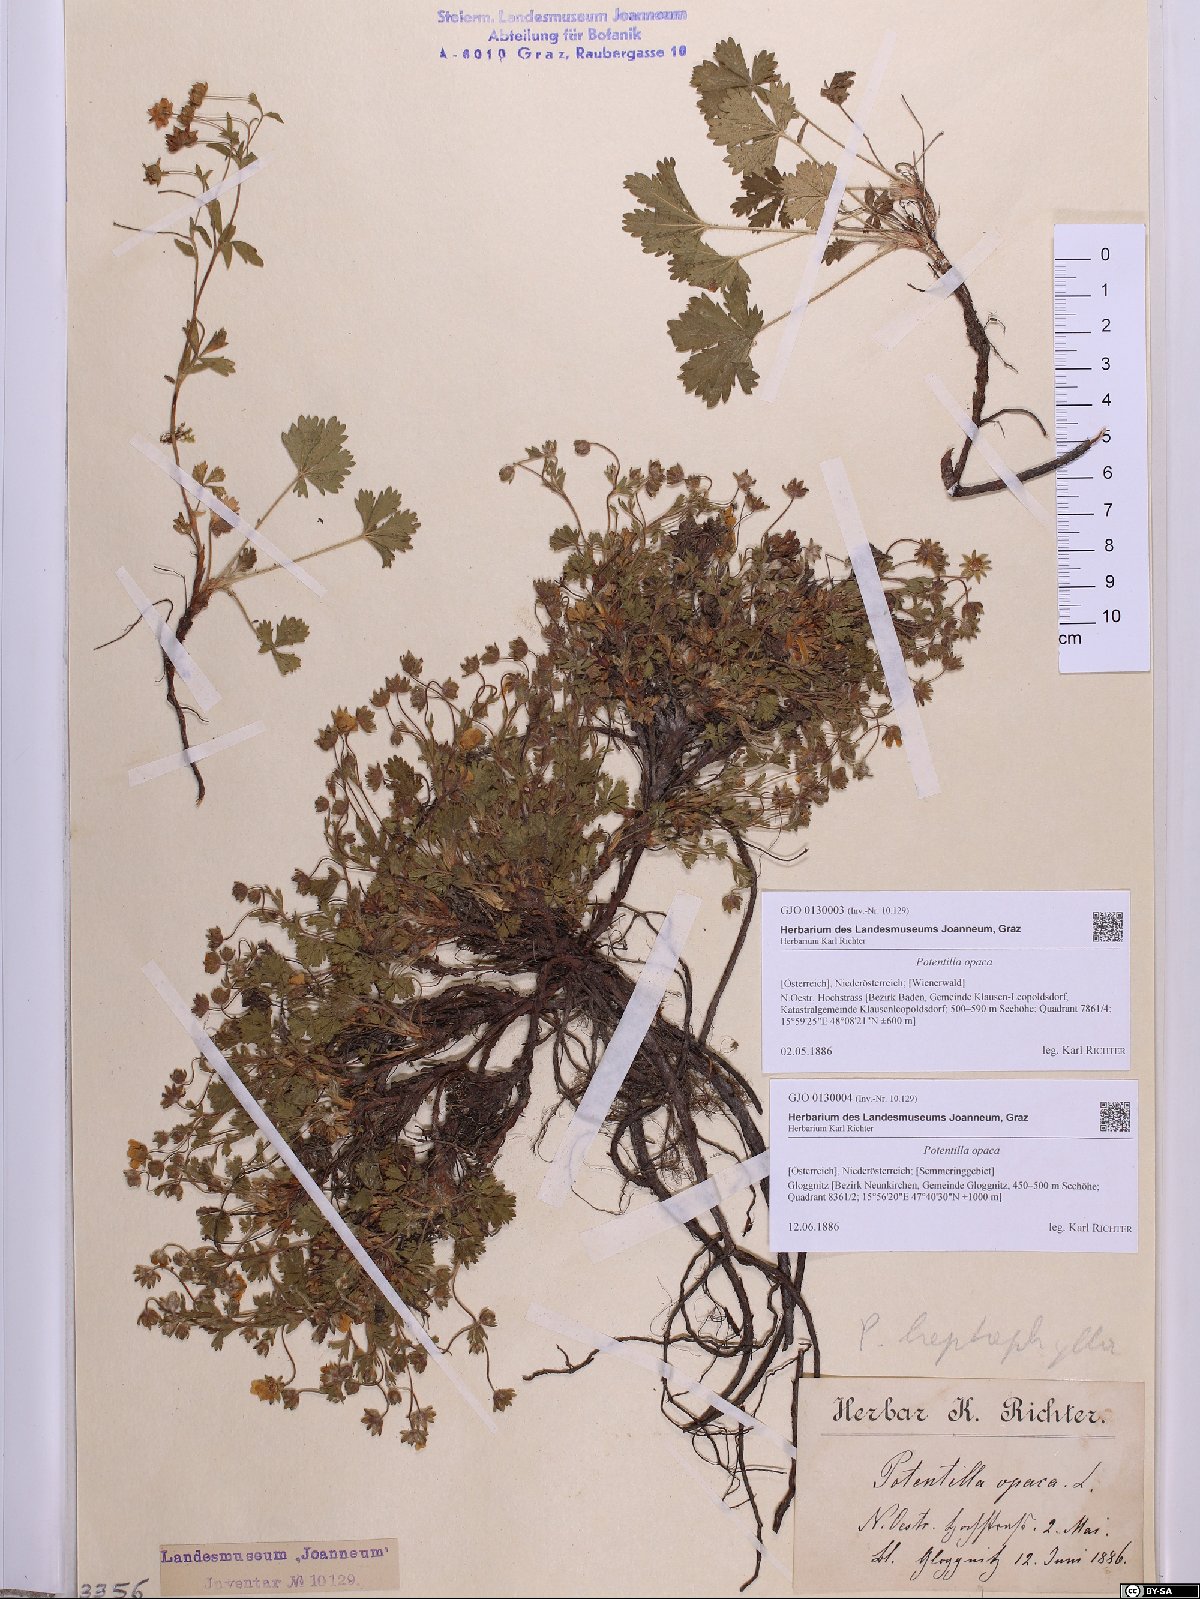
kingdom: Plantae
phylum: Tracheophyta
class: Magnoliopsida
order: Rosales
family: Rosaceae
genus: Potentilla
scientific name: Potentilla
